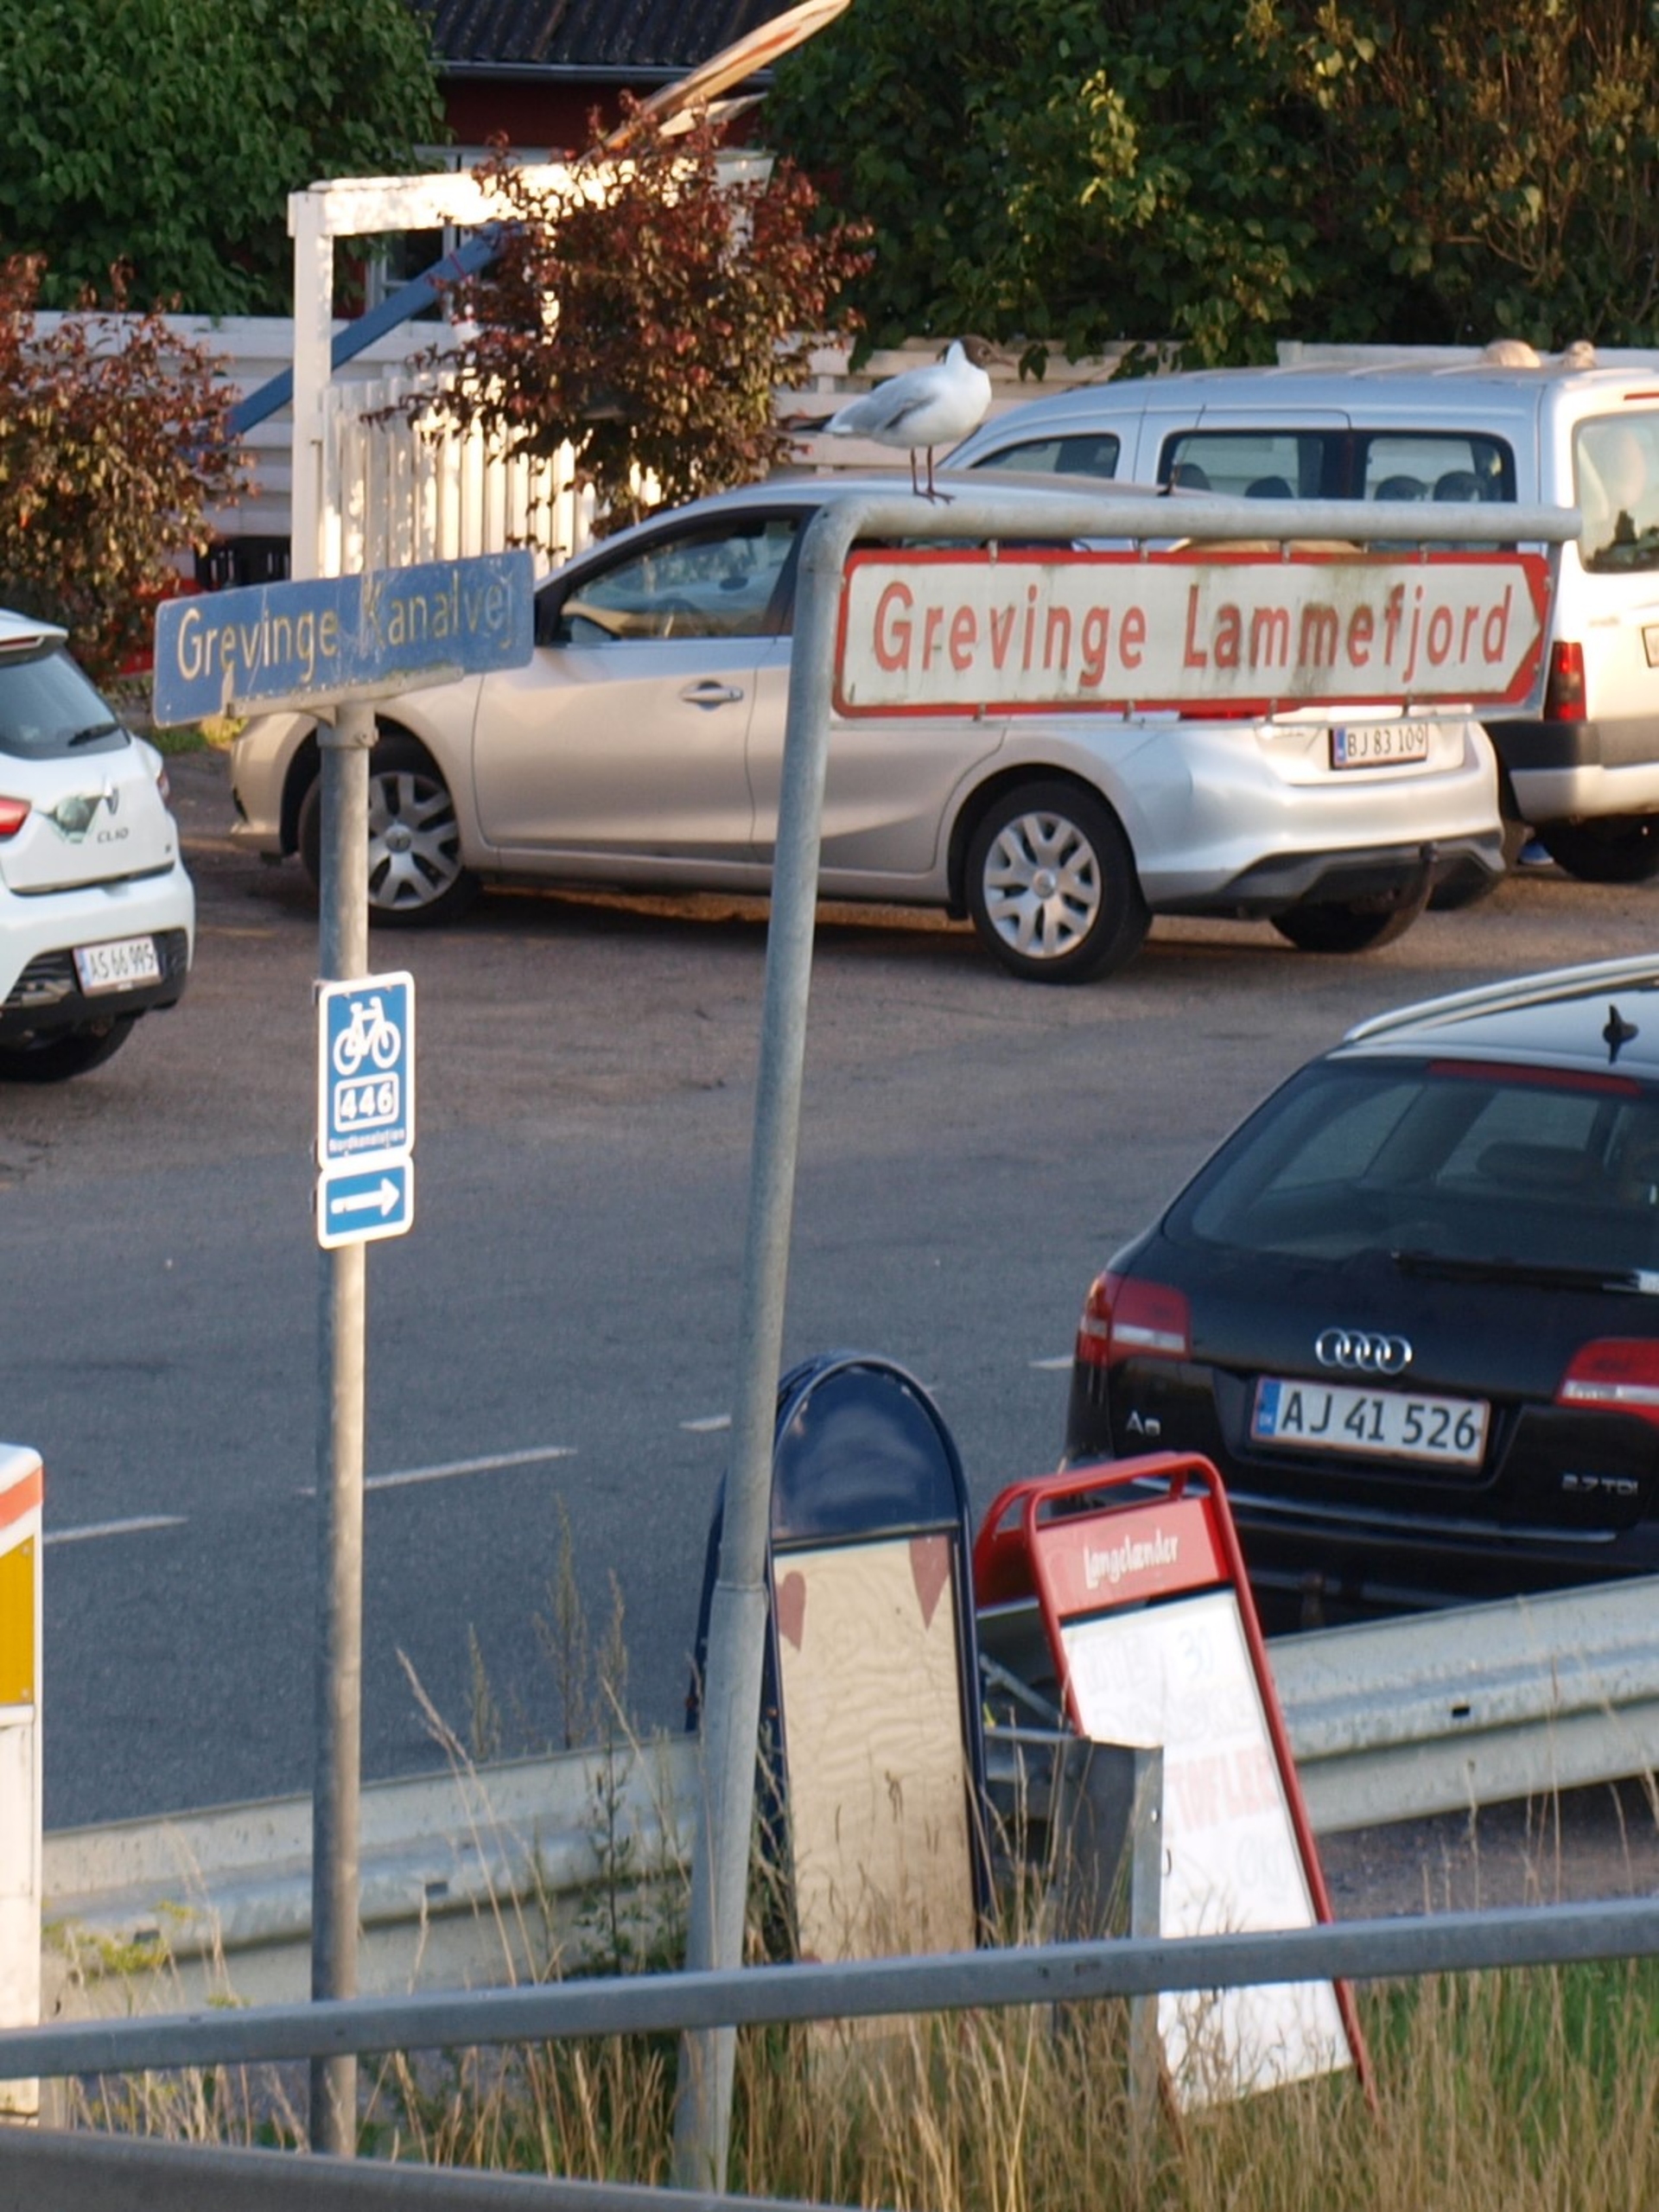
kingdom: Animalia
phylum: Chordata
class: Aves
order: Charadriiformes
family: Laridae
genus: Chroicocephalus
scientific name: Chroicocephalus ridibundus
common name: Hættemåge
